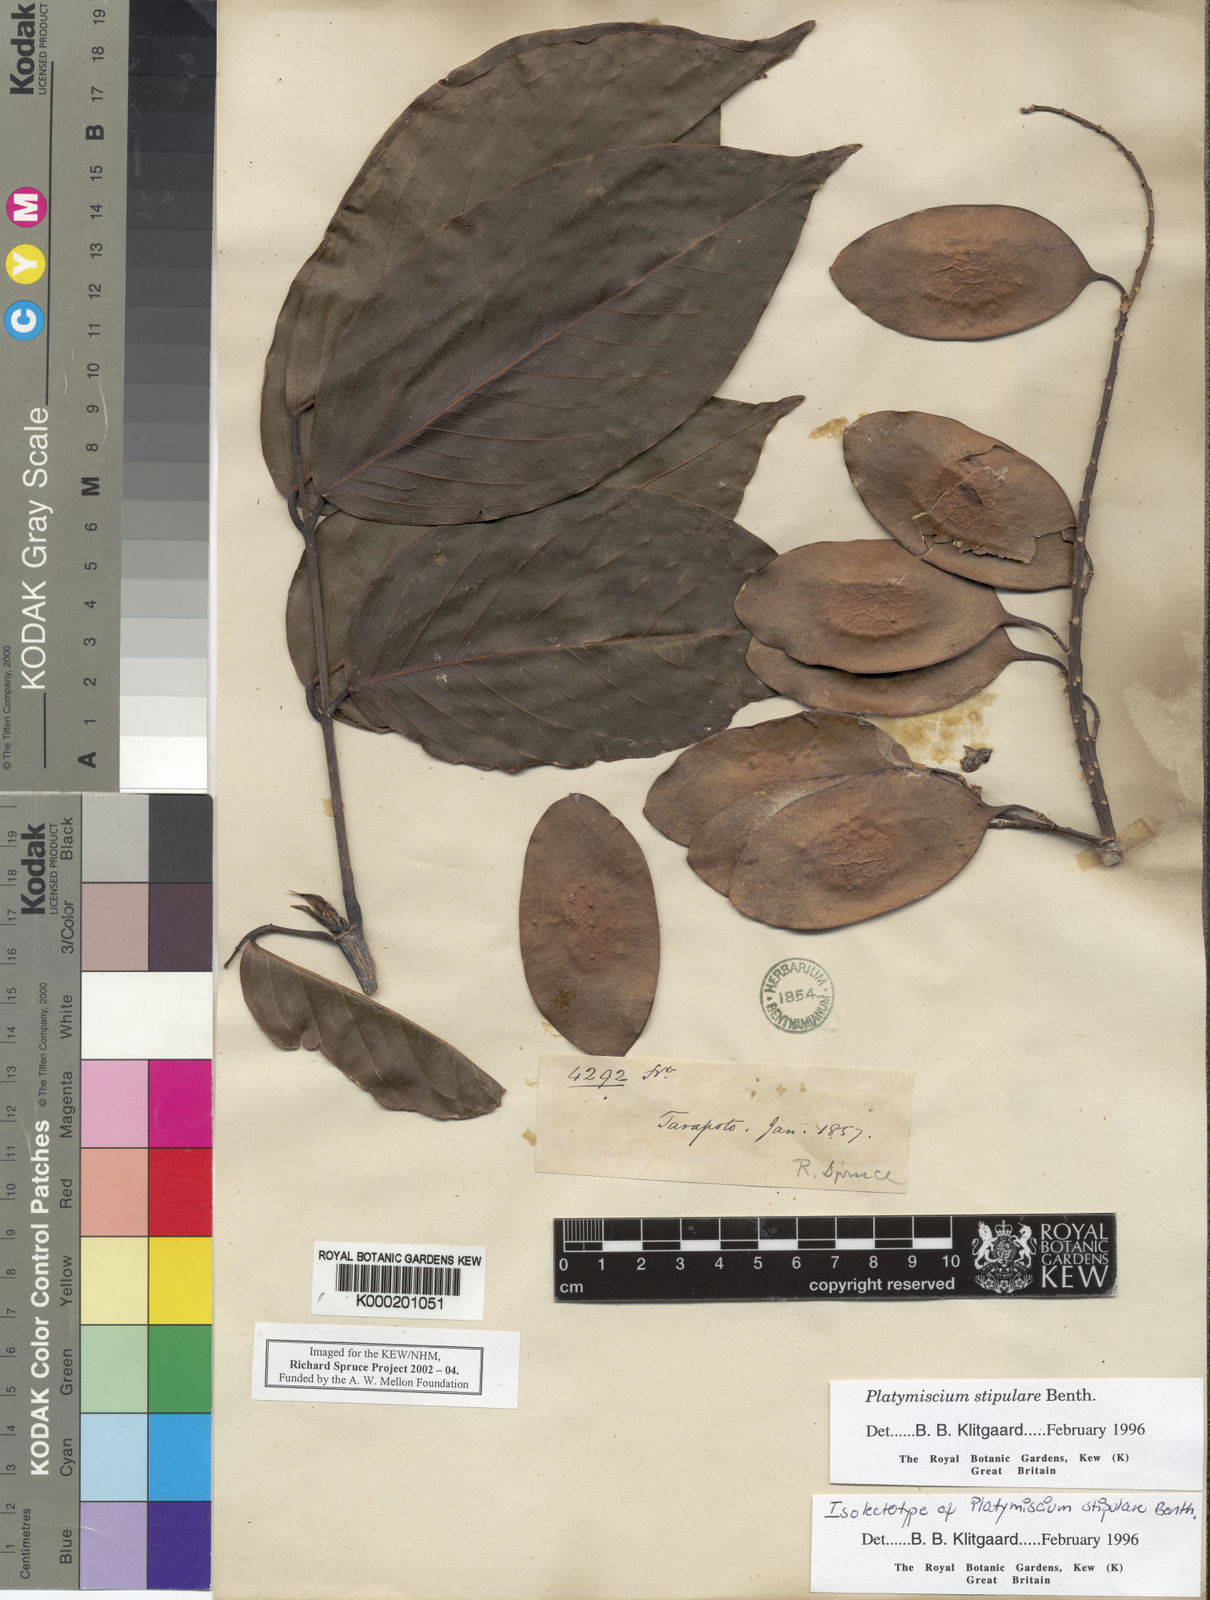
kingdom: Plantae
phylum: Tracheophyta
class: Magnoliopsida
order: Fabales
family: Fabaceae
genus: Platymiscium
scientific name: Platymiscium stipulare
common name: Legume
